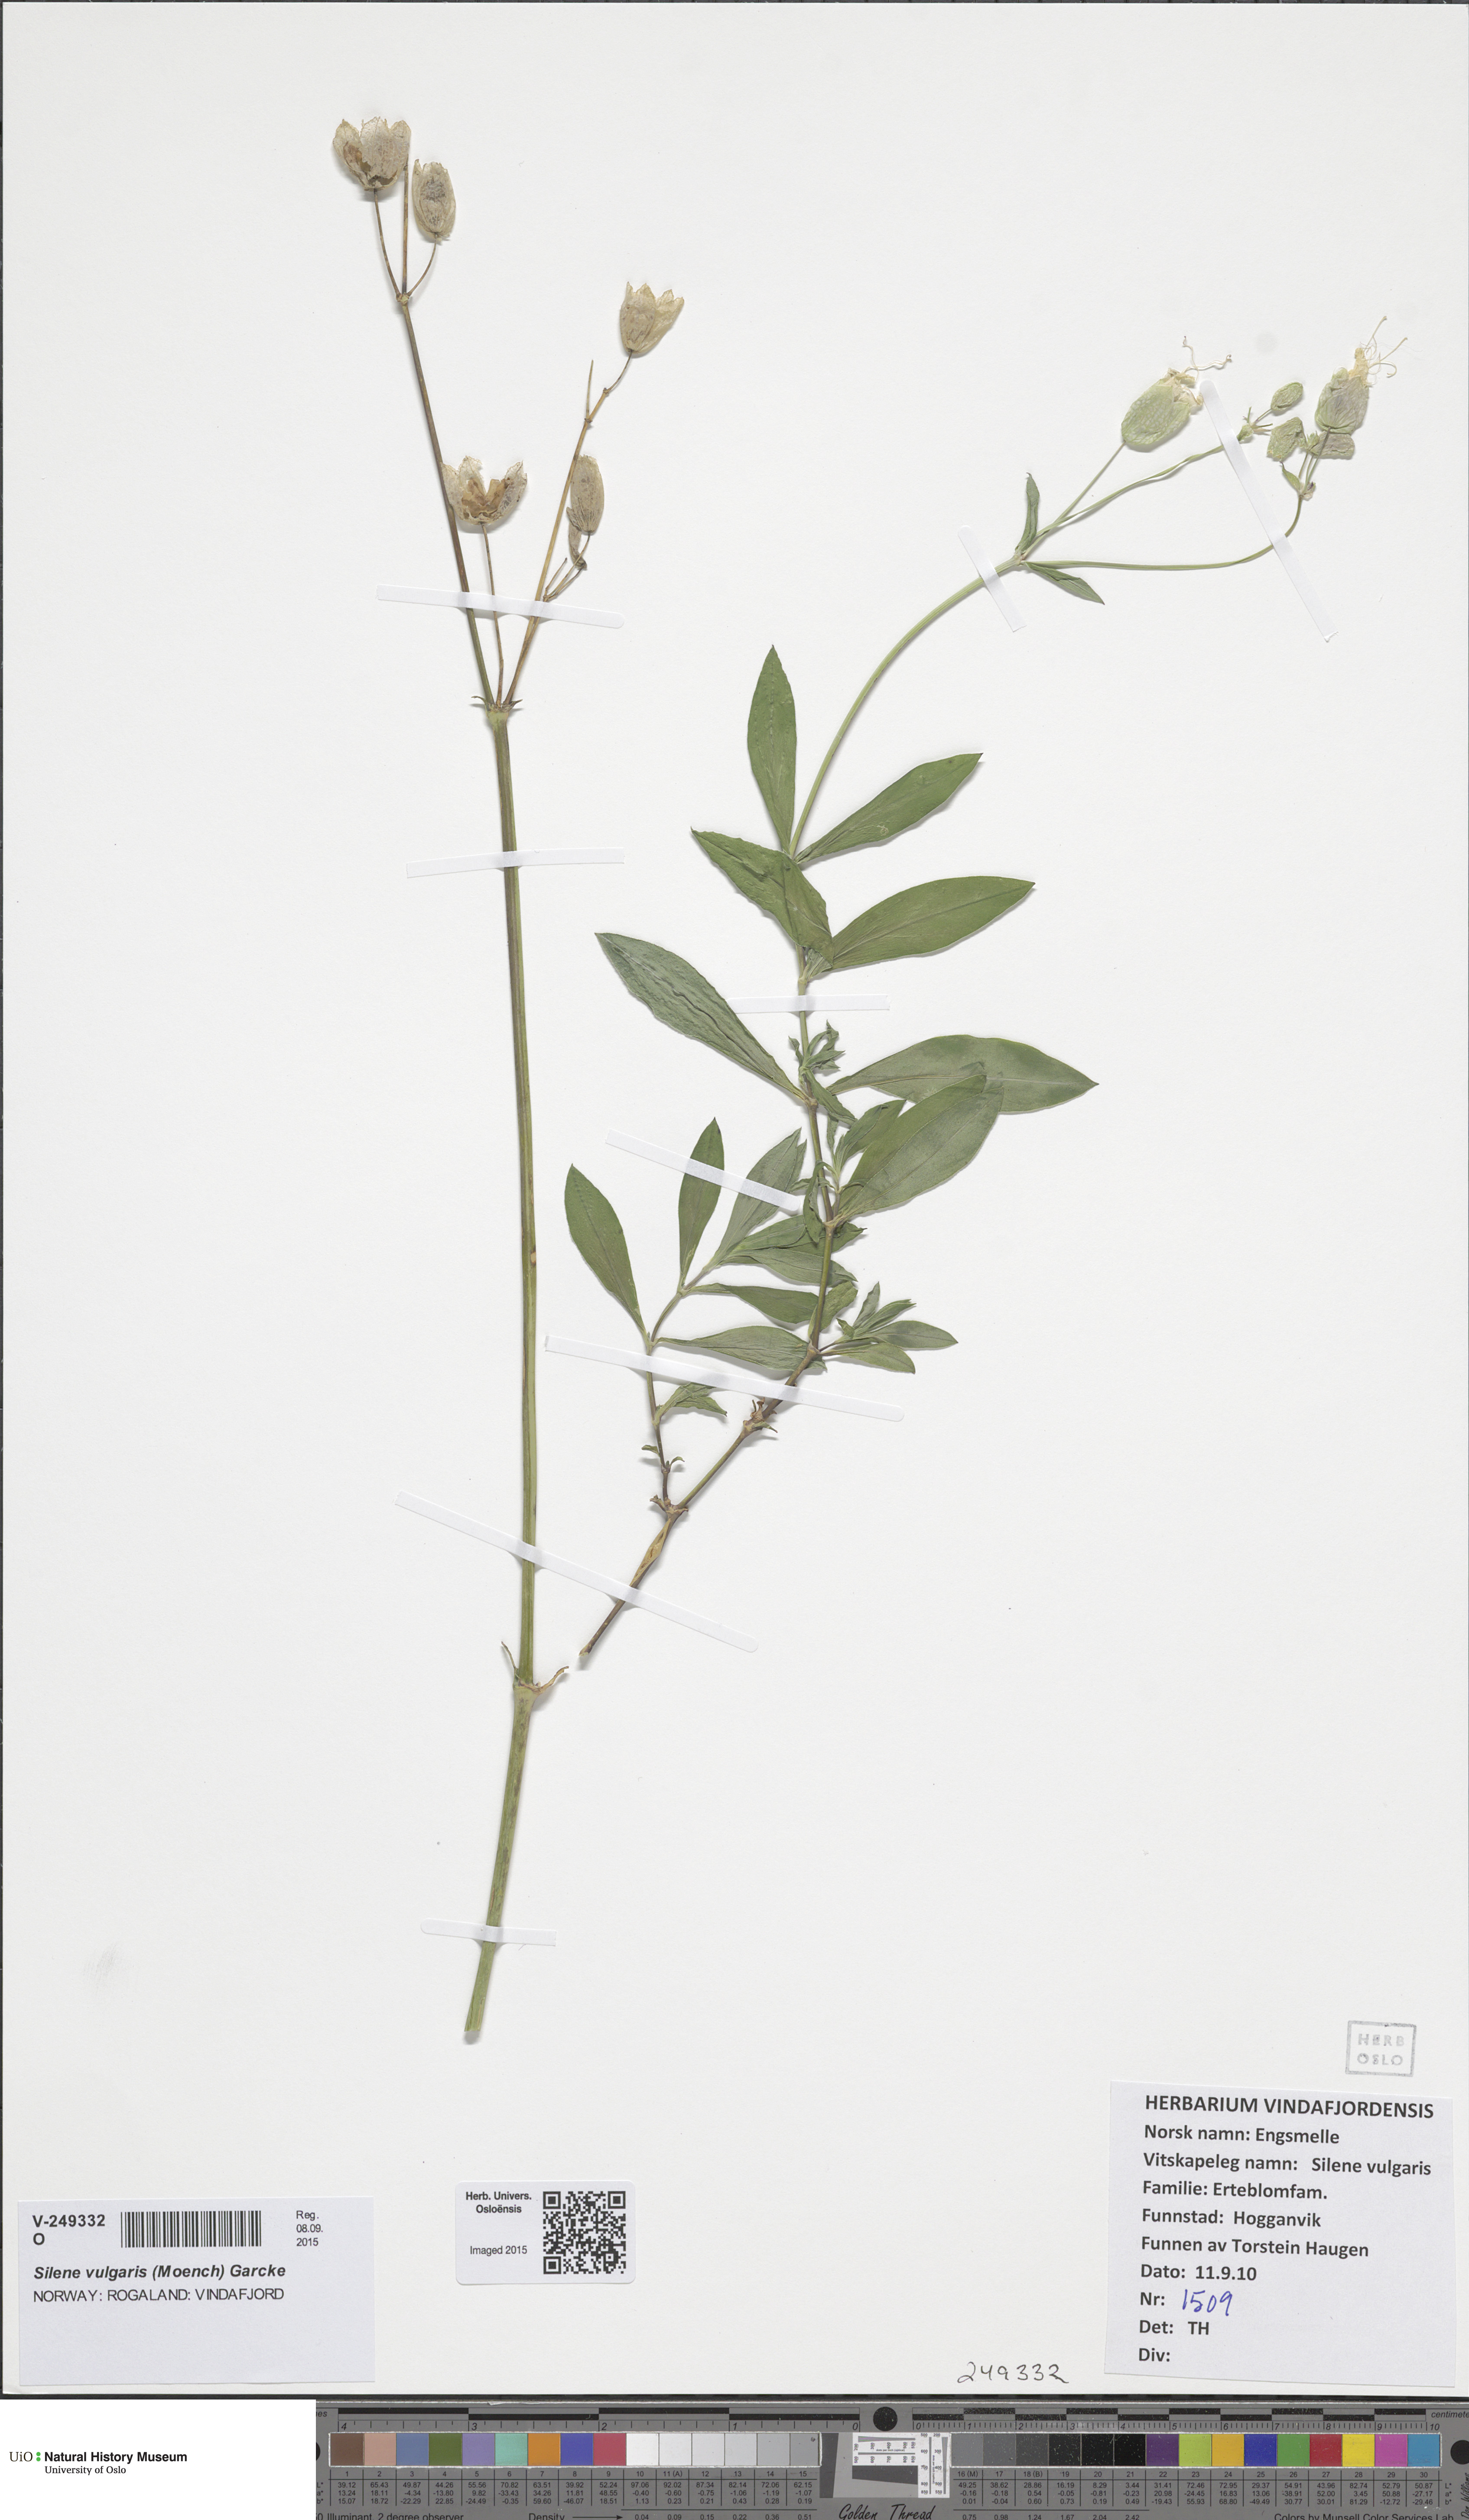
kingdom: Plantae
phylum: Tracheophyta
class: Magnoliopsida
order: Caryophyllales
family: Caryophyllaceae
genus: Silene
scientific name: Silene vulgaris
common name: Bladder campion
